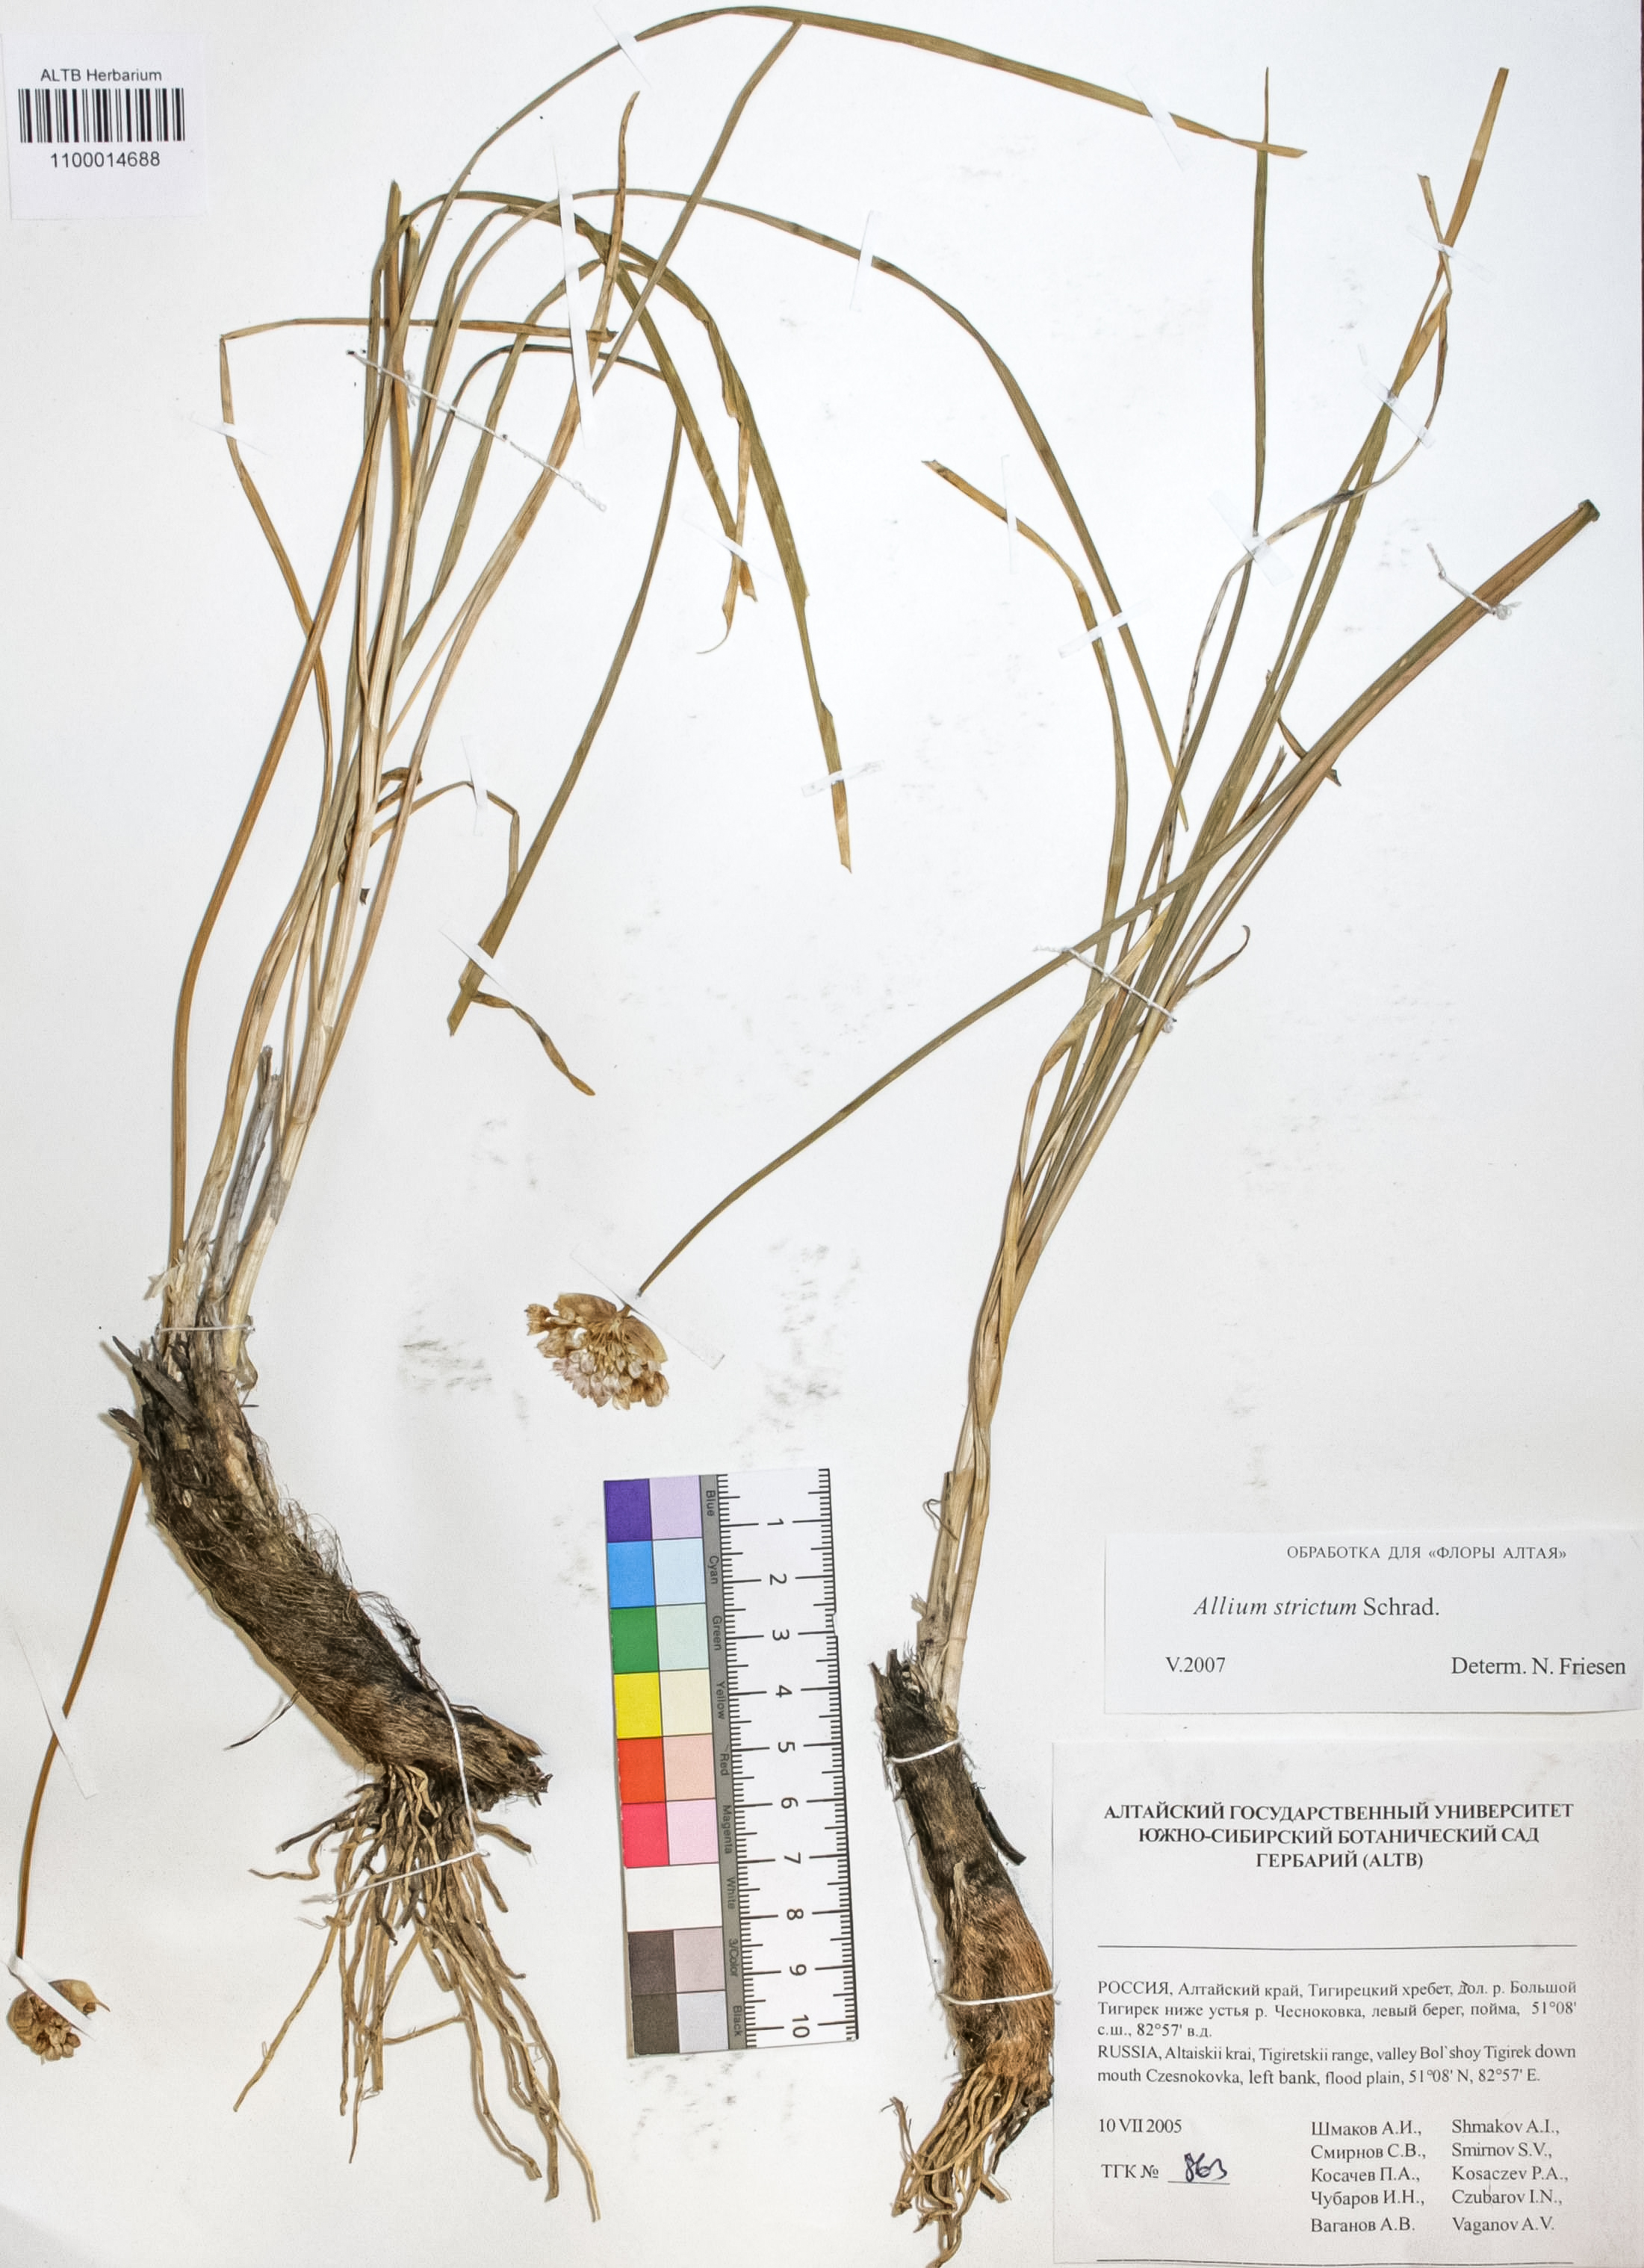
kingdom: Plantae
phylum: Tracheophyta
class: Liliopsida
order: Asparagales
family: Amaryllidaceae
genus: Allium
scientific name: Allium strictum
